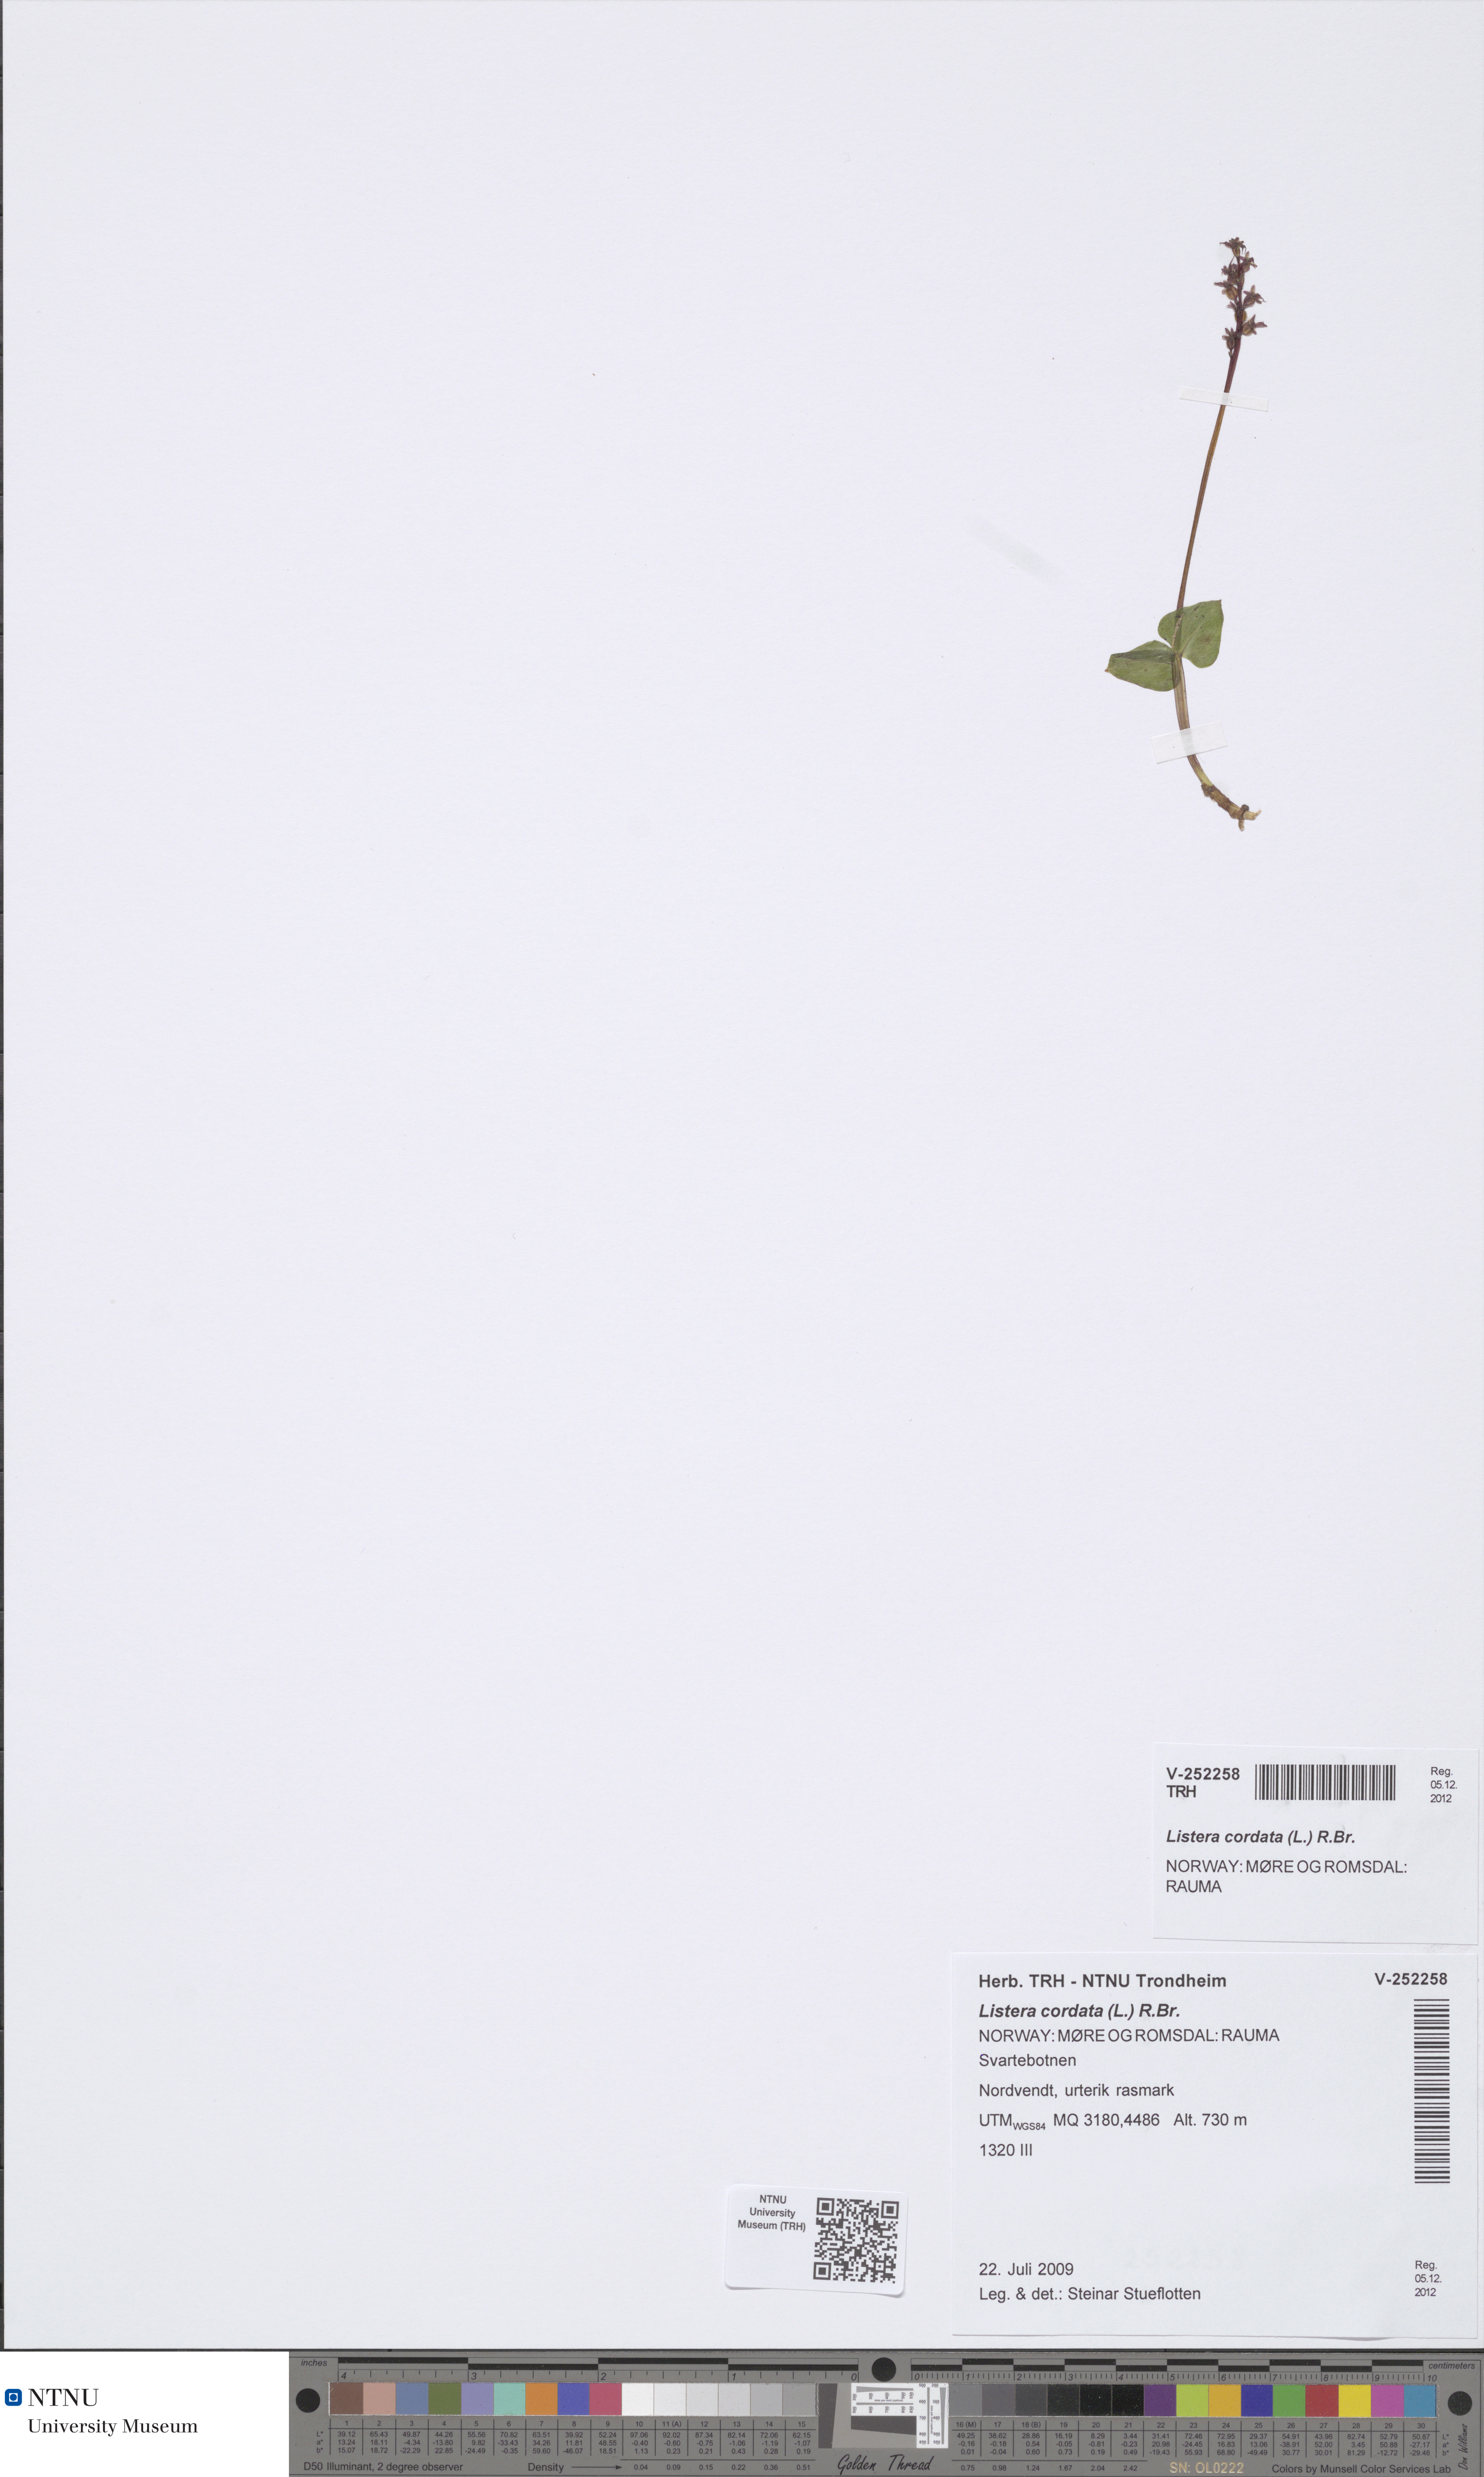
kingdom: Plantae
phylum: Tracheophyta
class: Liliopsida
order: Asparagales
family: Orchidaceae
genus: Neottia
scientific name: Neottia cordata
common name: Lesser twayblade
